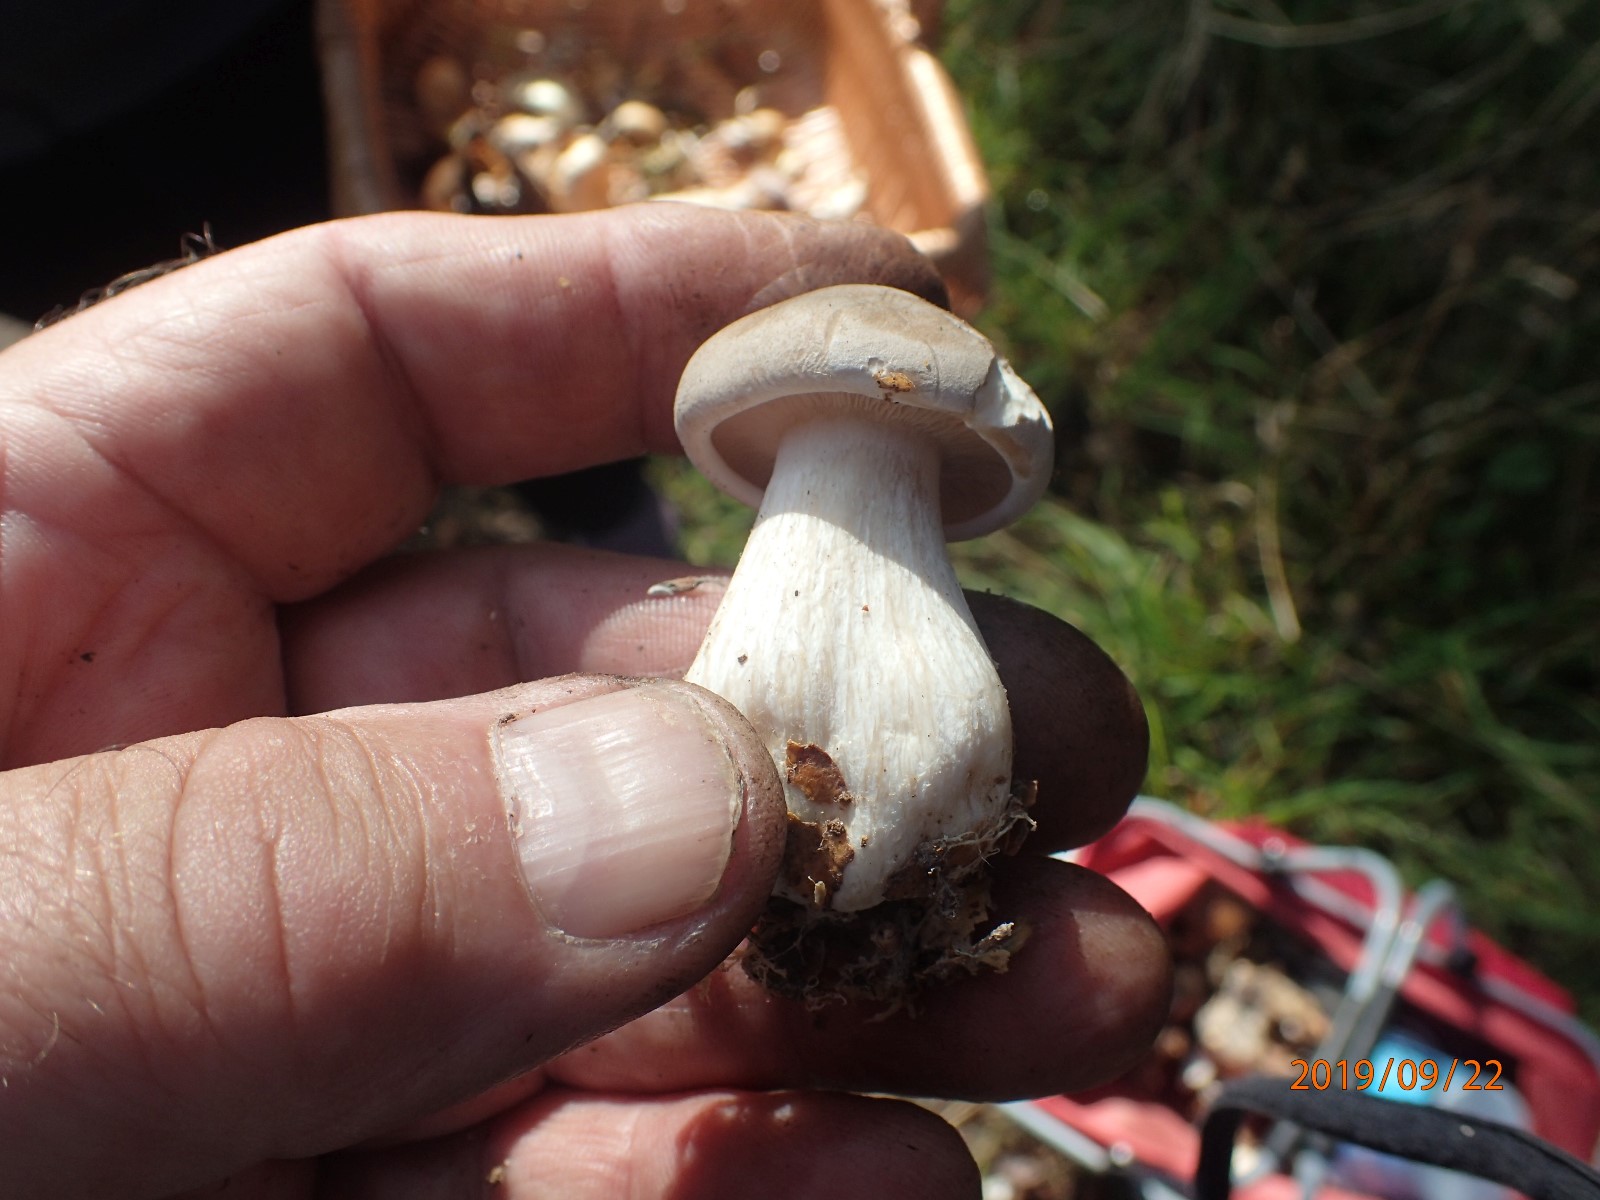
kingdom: Fungi
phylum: Basidiomycota
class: Agaricomycetes
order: Agaricales
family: Tricholomataceae
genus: Clitocybe
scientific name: Clitocybe nebularis
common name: tåge-tragthat
